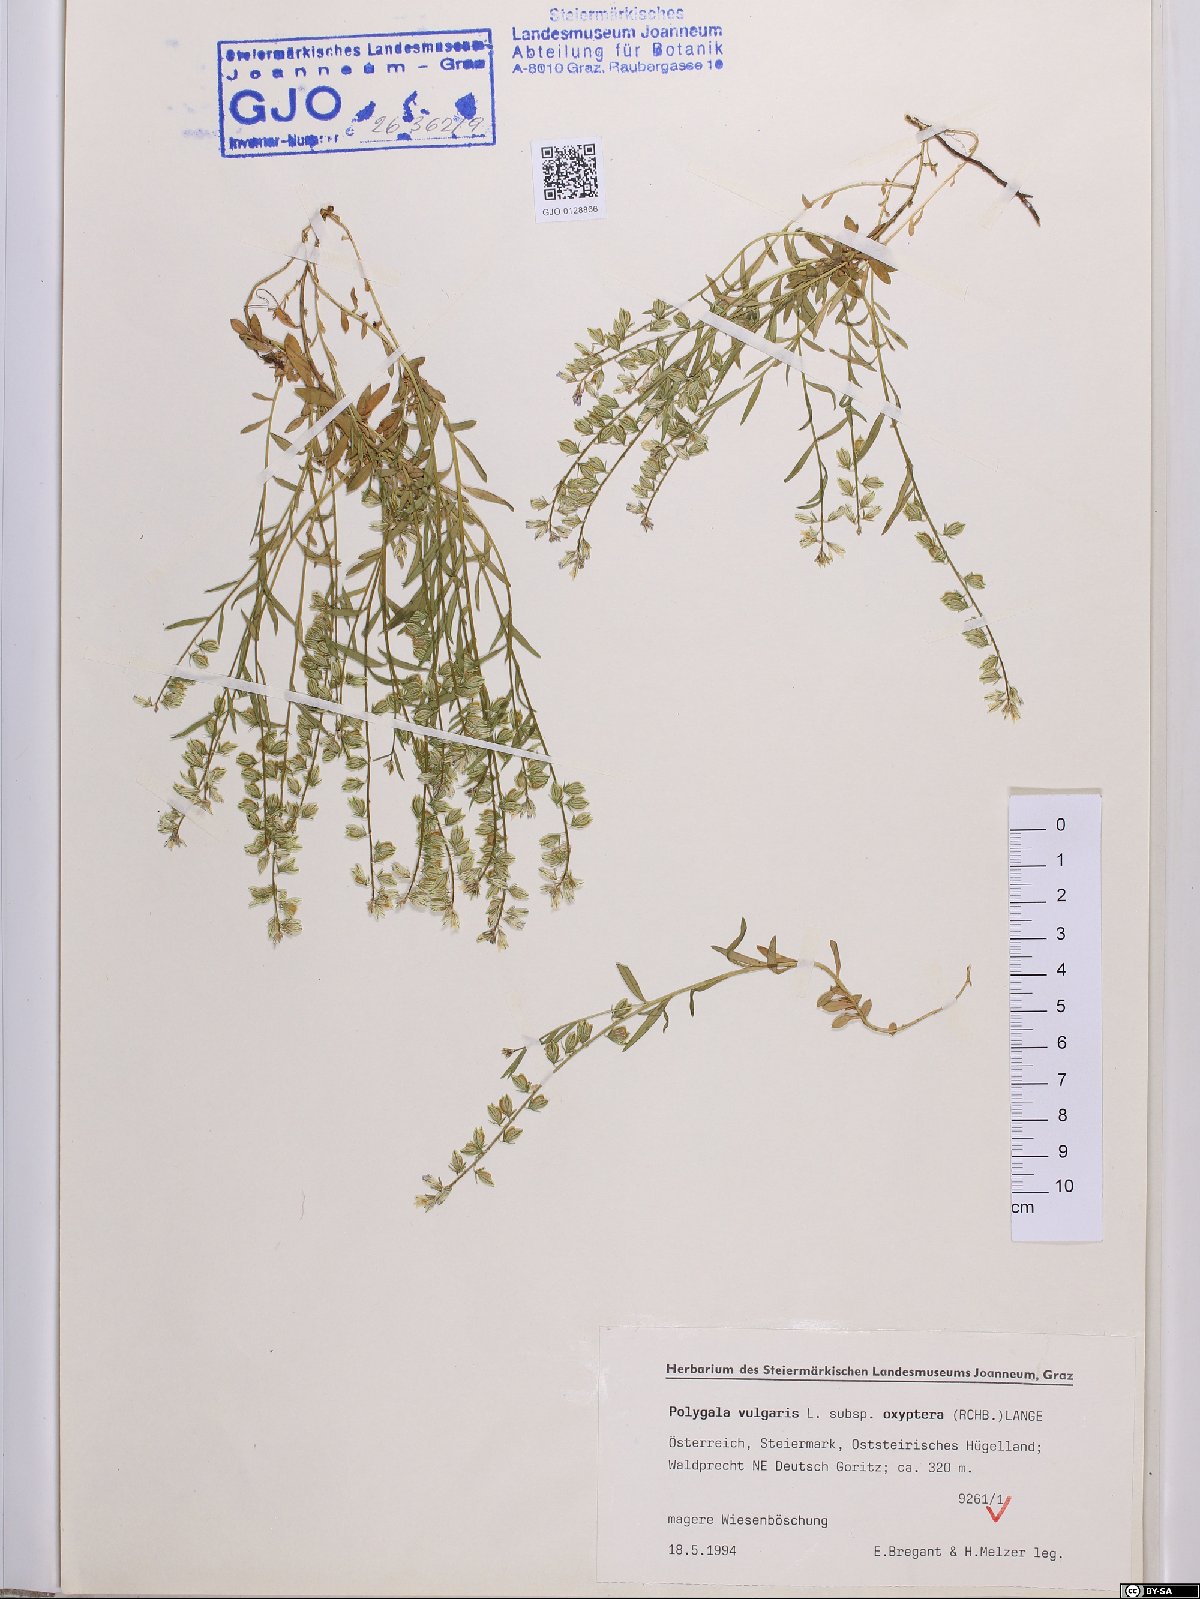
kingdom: Plantae
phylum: Tracheophyta
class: Magnoliopsida
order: Fabales
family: Polygalaceae
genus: Polygala
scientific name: Polygala vulgaris
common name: Common milkwort
